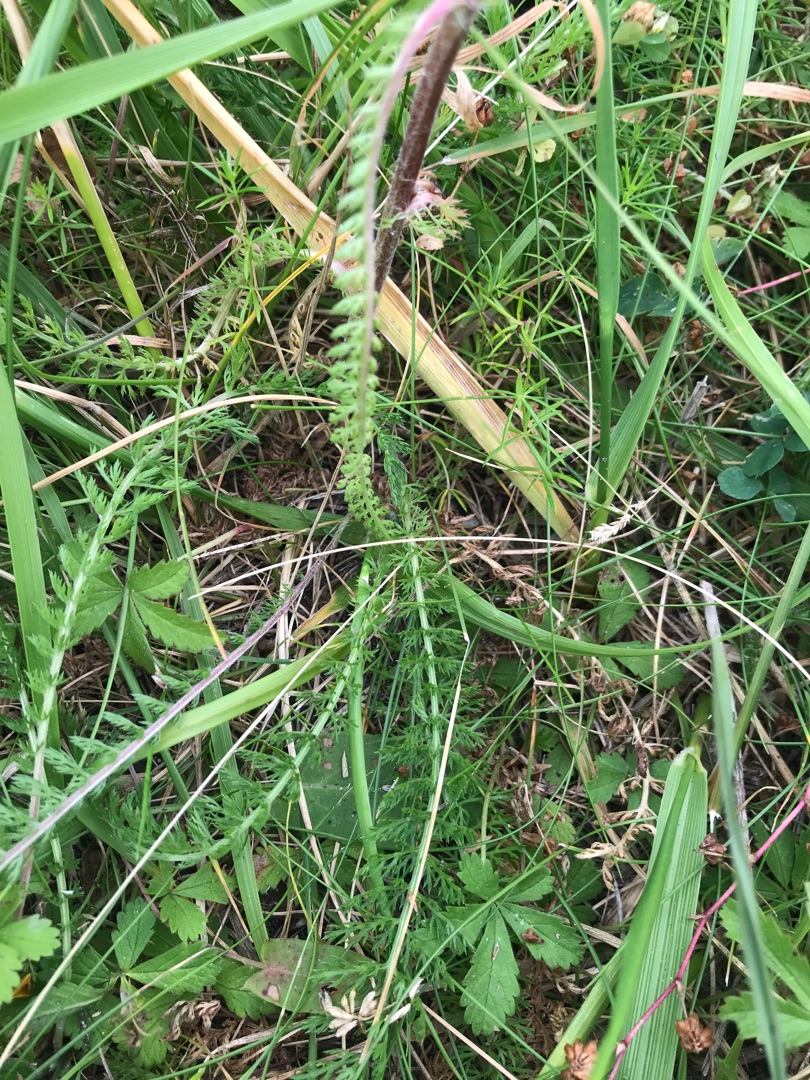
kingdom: Plantae
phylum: Tracheophyta
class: Magnoliopsida
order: Asterales
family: Asteraceae
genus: Achillea
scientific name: Achillea millefolium
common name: Almindelig røllike
